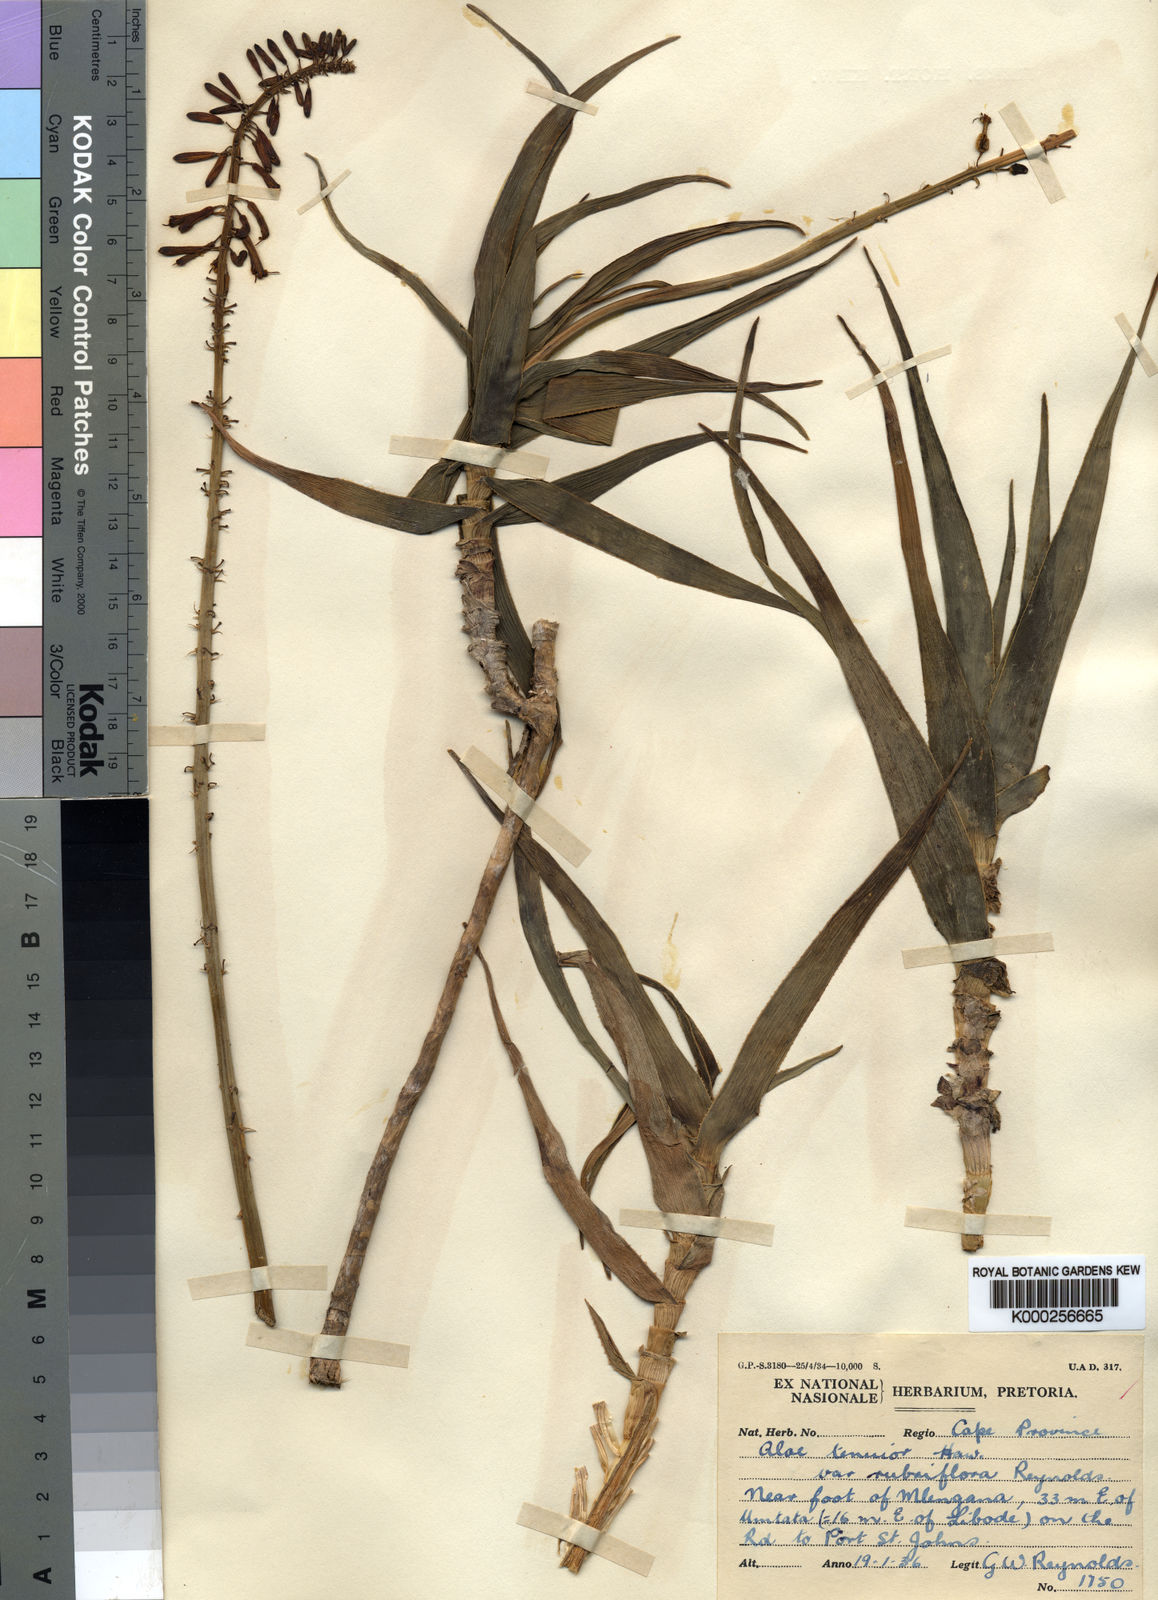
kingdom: Plantae
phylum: Tracheophyta
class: Liliopsida
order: Asparagales
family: Asphodelaceae
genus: Aloiampelos
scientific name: Aloiampelos tenuior
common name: Fence aloe
